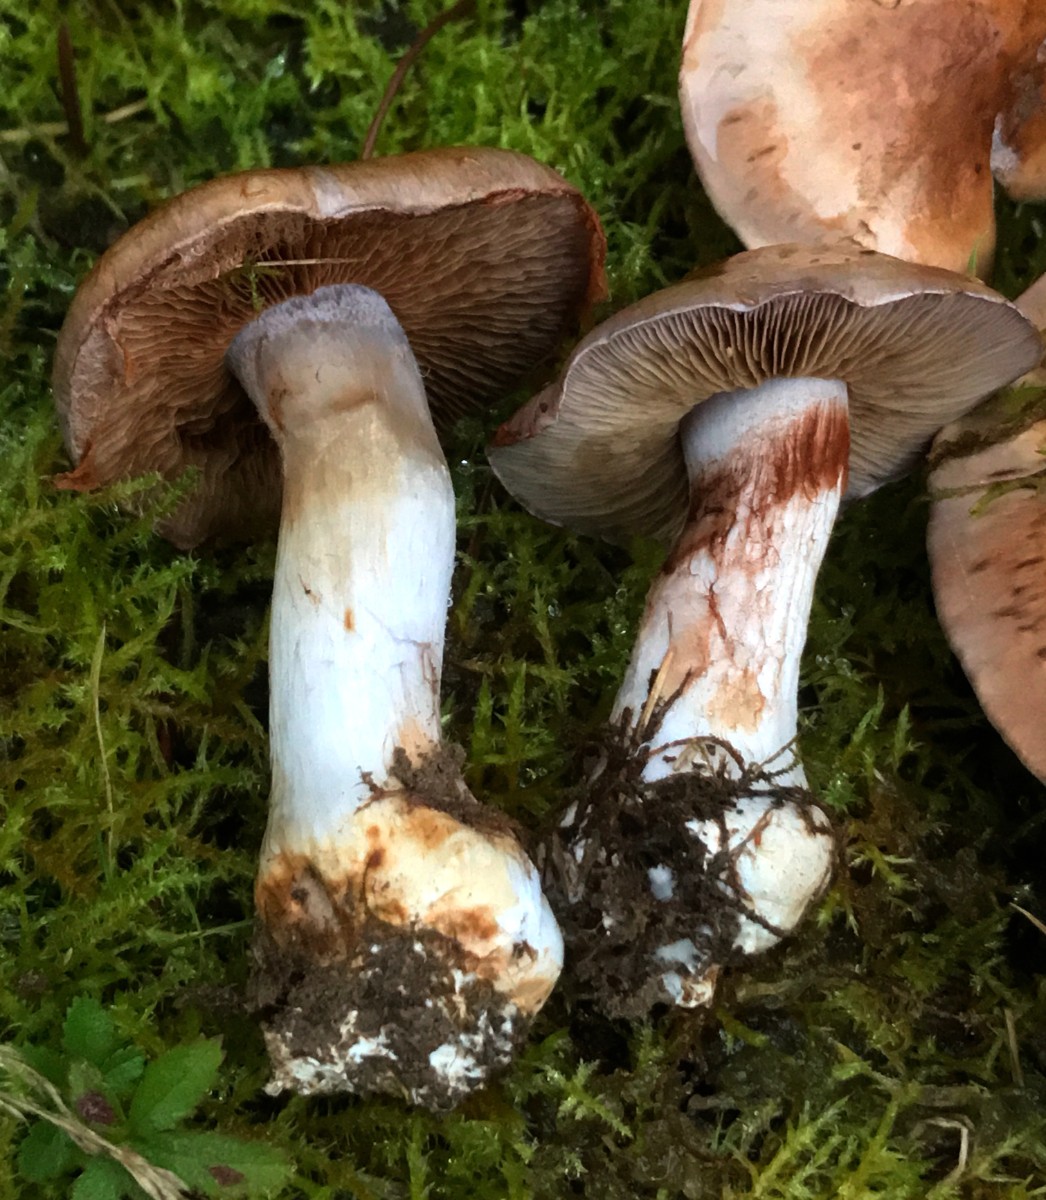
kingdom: Fungi
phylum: Basidiomycota
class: Agaricomycetes
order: Agaricales
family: Cortinariaceae
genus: Cortinarius
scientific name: Cortinarius largus
